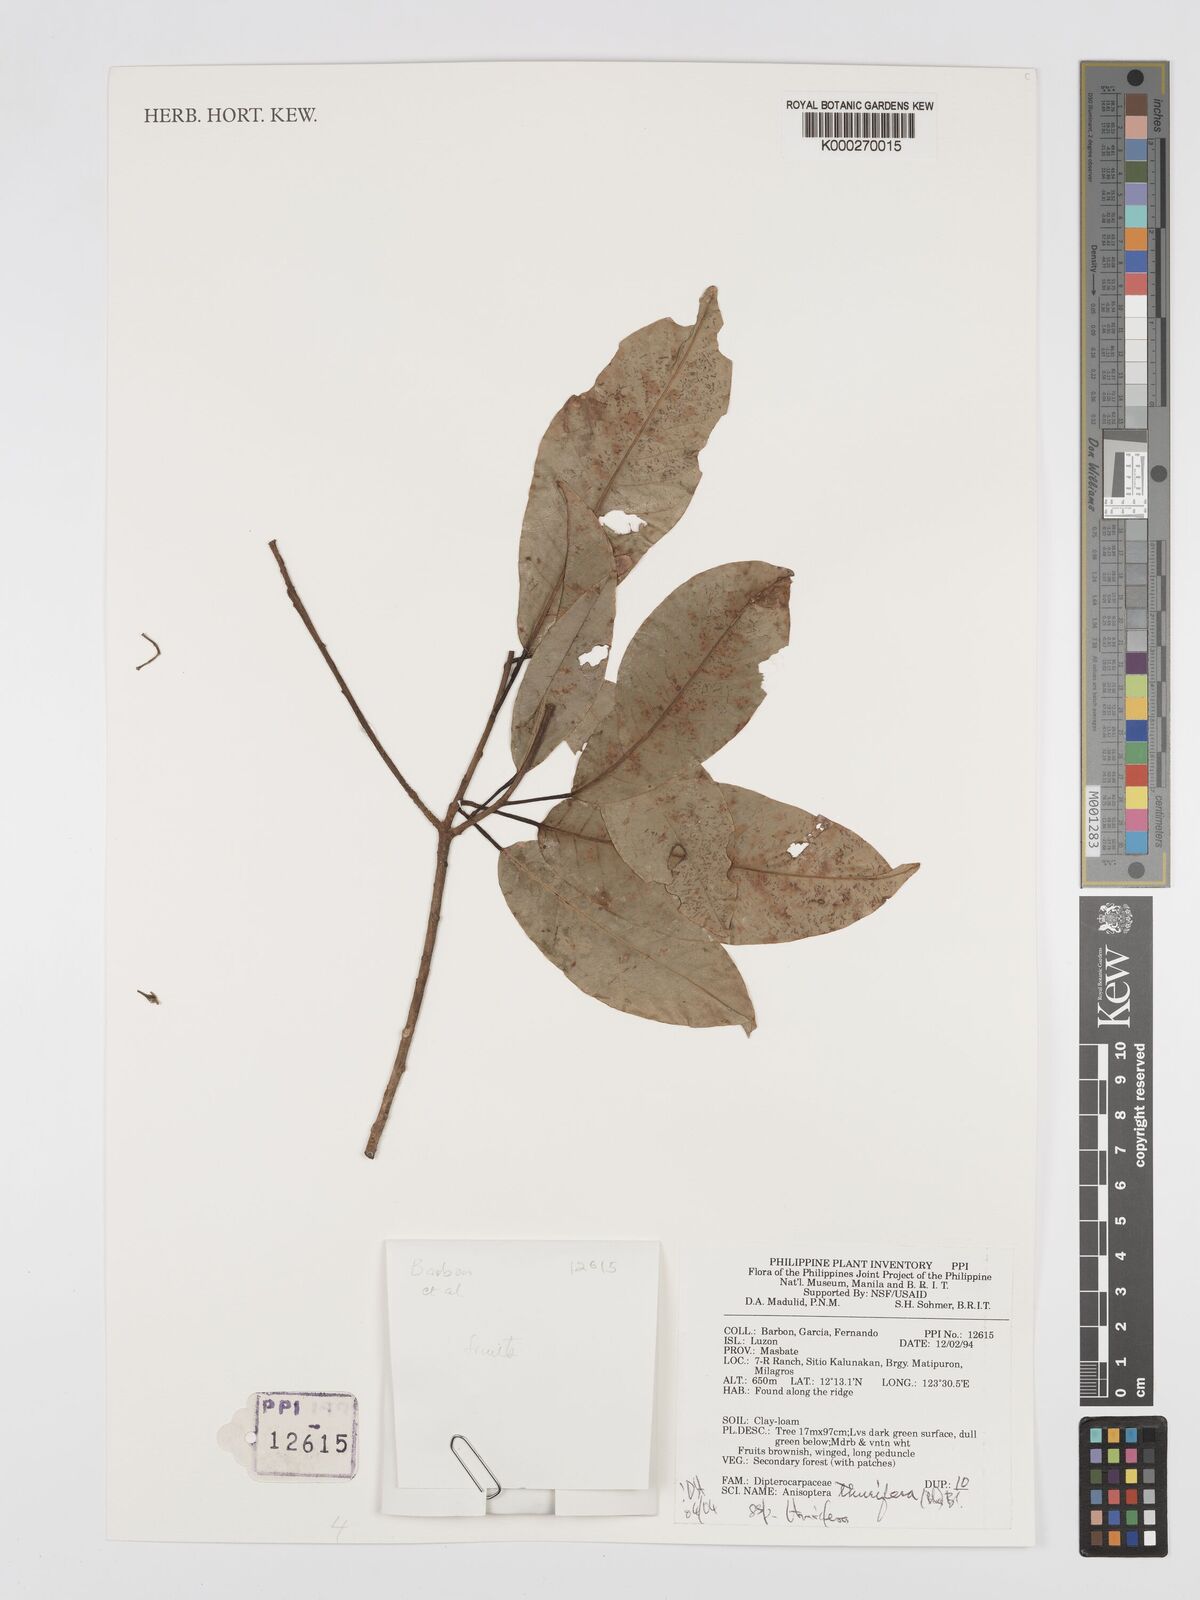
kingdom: Plantae
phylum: Tracheophyta
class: Magnoliopsida
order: Malvales
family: Dipterocarpaceae
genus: Anisoptera
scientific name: Anisoptera thurifera
